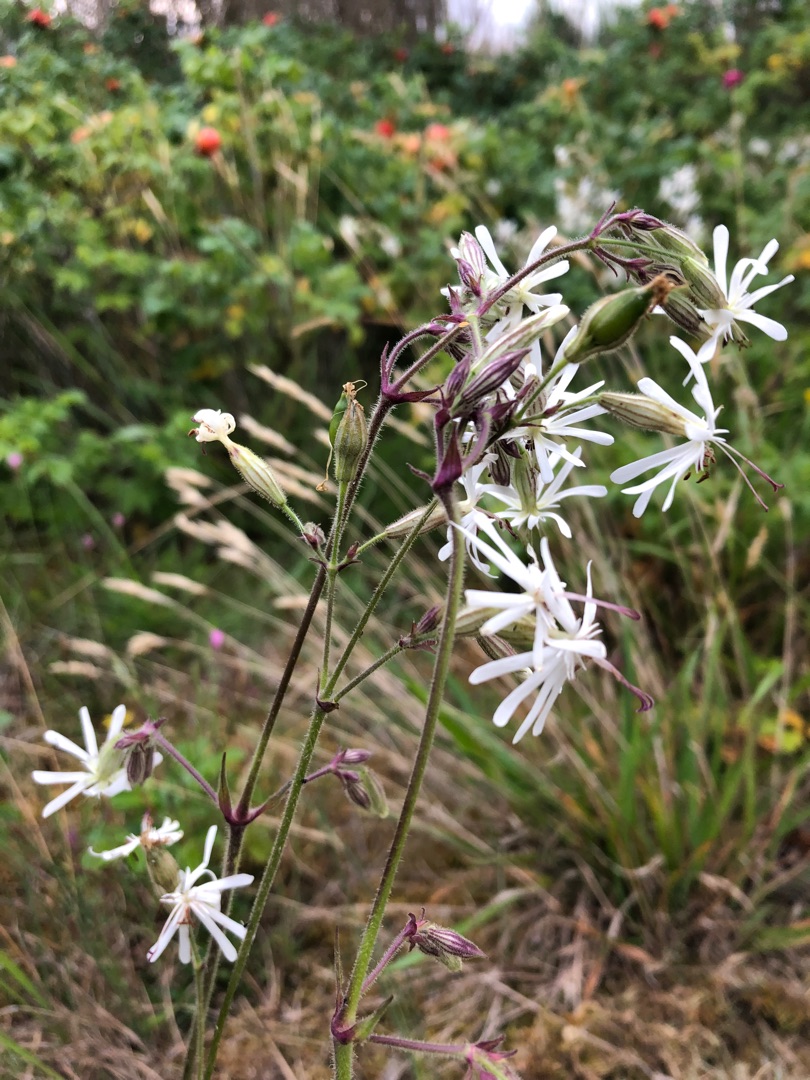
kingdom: Plantae
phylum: Tracheophyta
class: Magnoliopsida
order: Caryophyllales
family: Caryophyllaceae
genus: Silene
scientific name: Silene nutans
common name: Nikkende limurt
